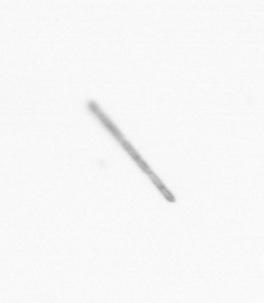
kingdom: Chromista
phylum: Ochrophyta
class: Bacillariophyceae
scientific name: Bacillariophyceae
